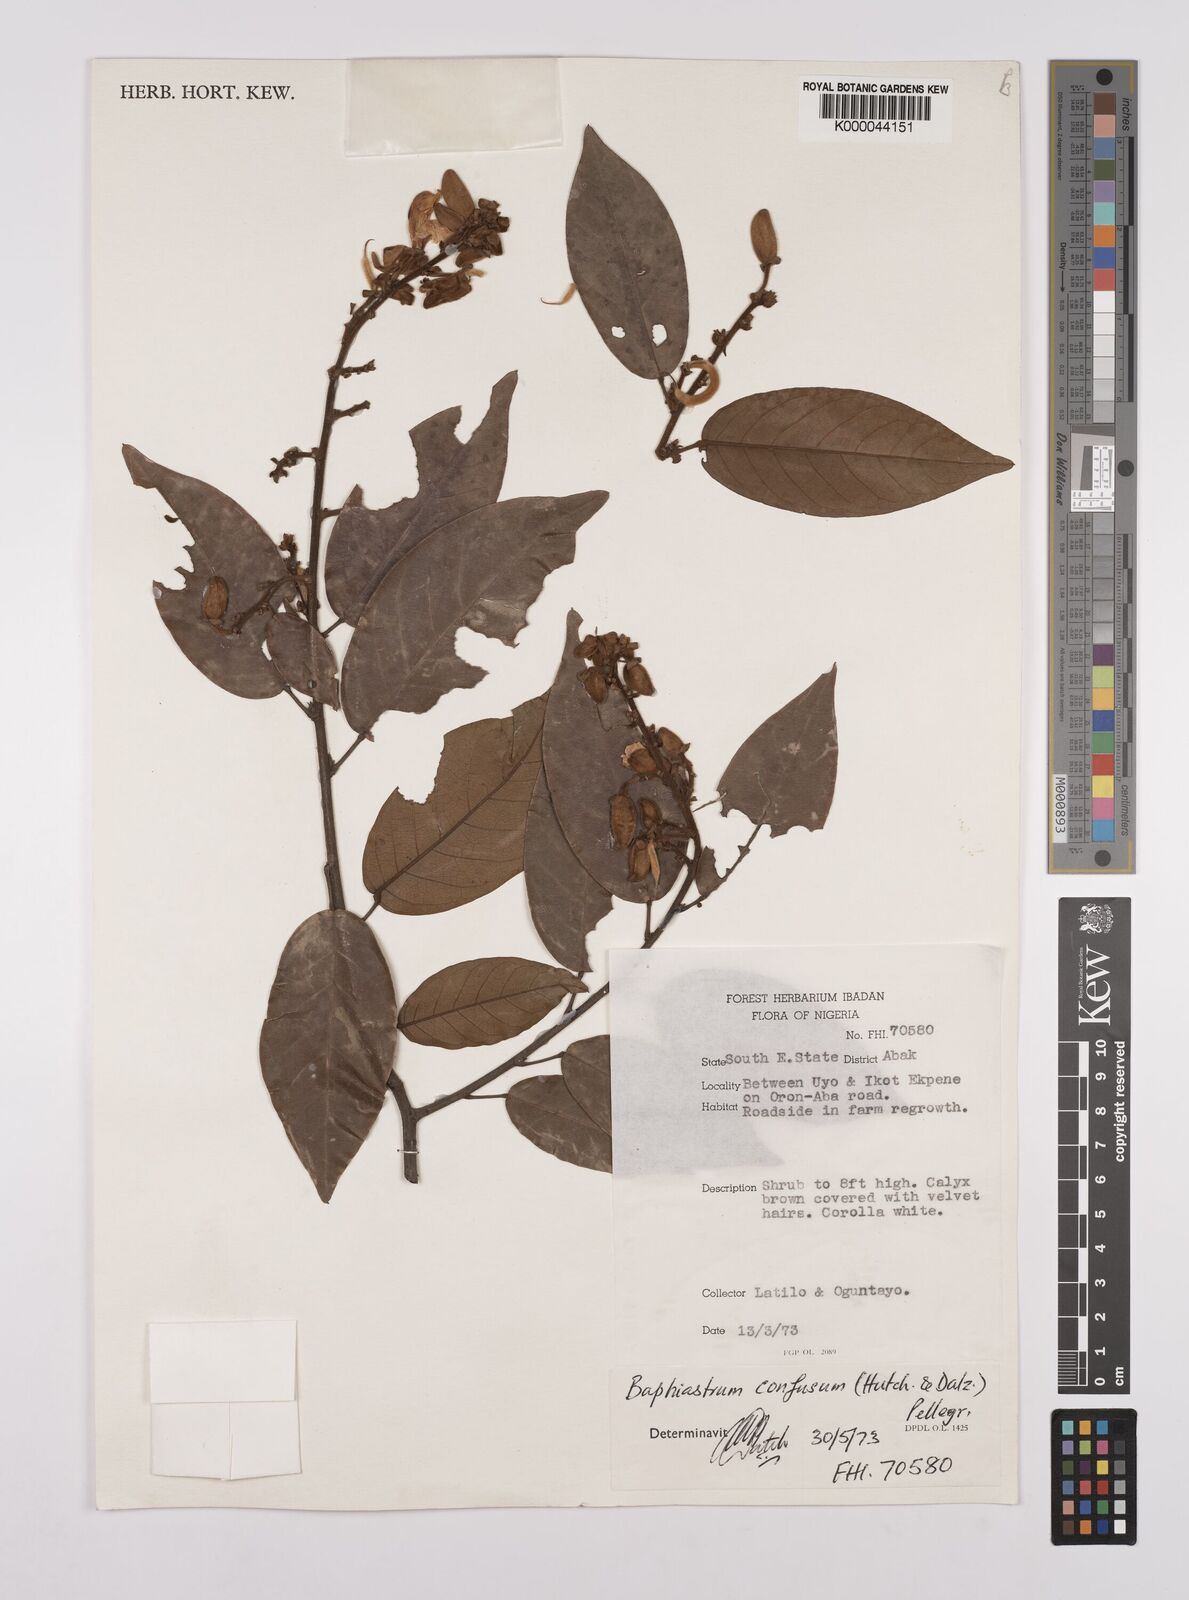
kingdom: Plantae
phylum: Tracheophyta
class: Magnoliopsida
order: Fabales
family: Fabaceae
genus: Airyantha
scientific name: Airyantha schweinfurthii
